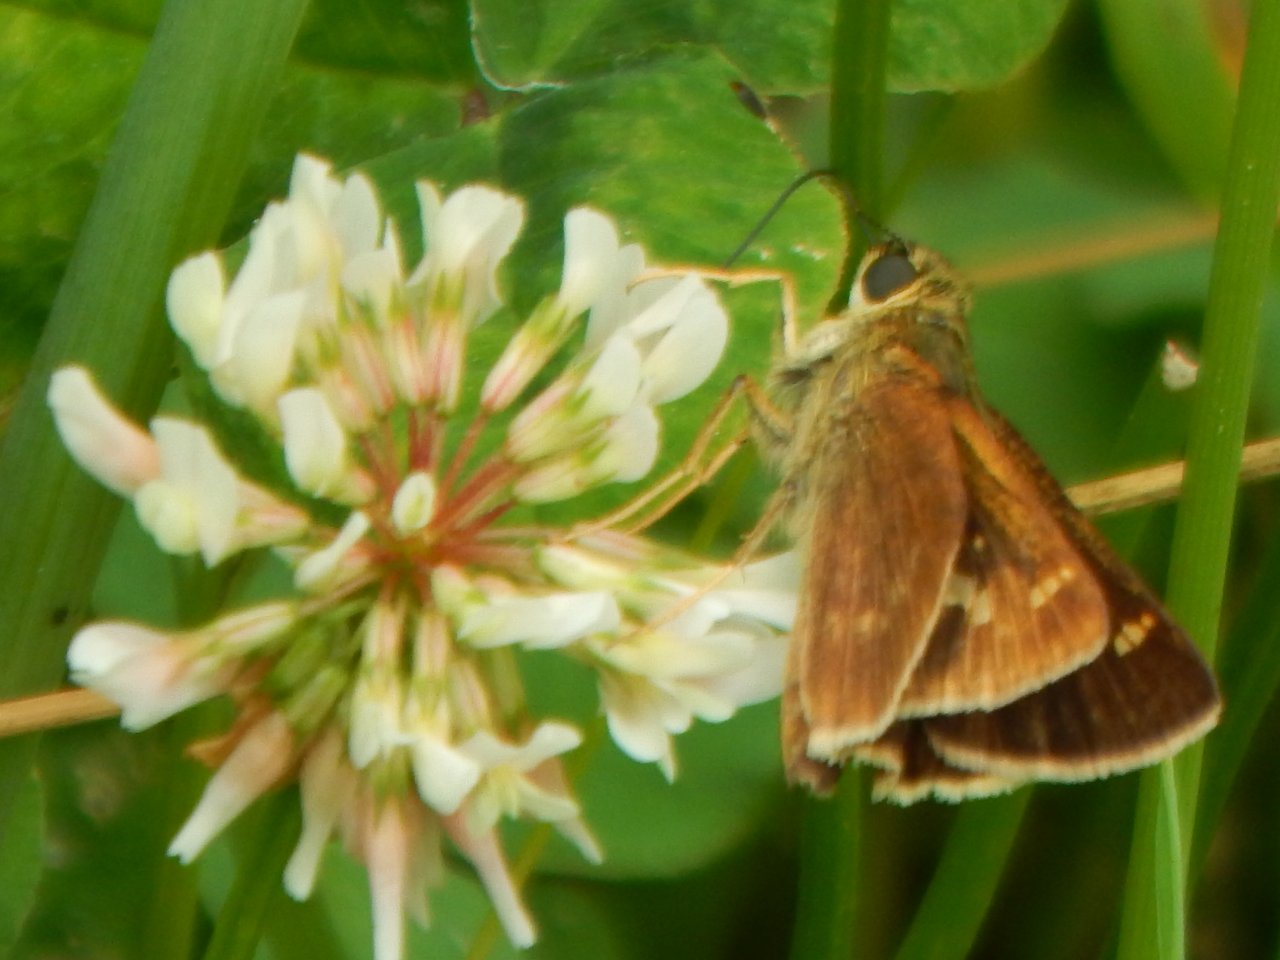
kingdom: Animalia
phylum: Arthropoda
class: Insecta
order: Lepidoptera
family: Hesperiidae
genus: Vernia
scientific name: Vernia verna
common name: Little Glassywing
